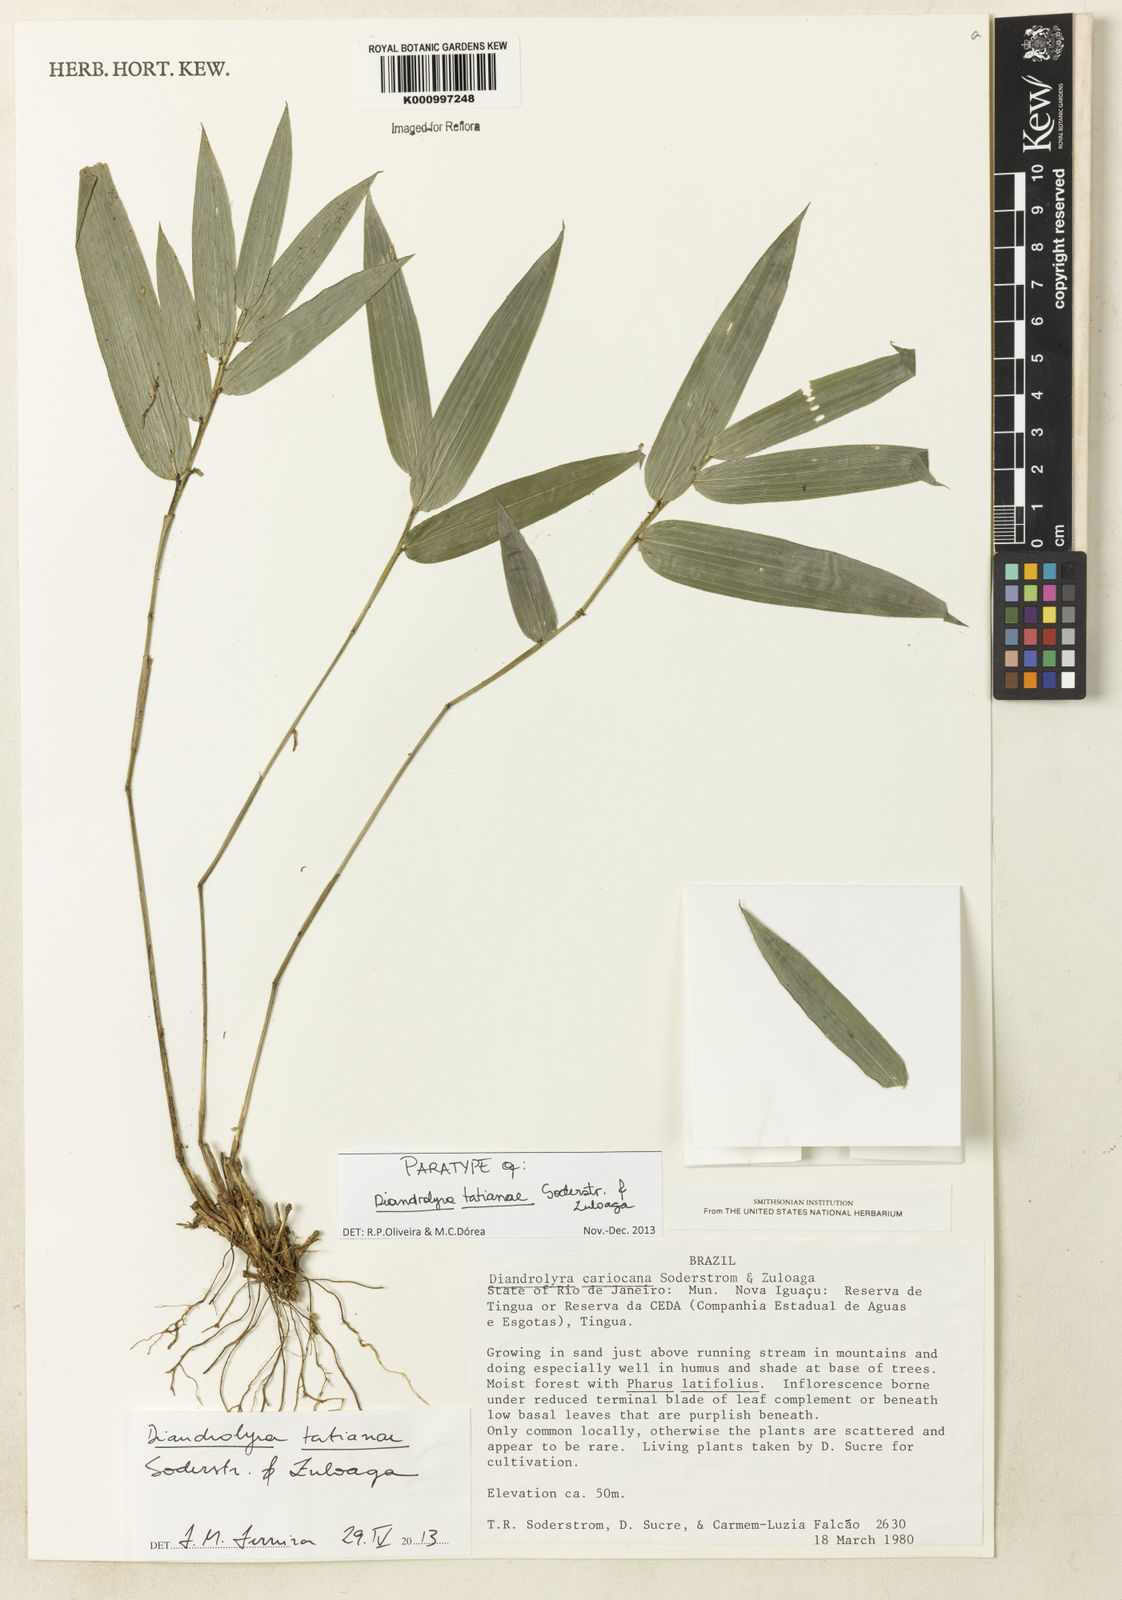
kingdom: Plantae
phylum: Tracheophyta
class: Liliopsida
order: Poales
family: Poaceae
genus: Diandrolyra
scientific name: Diandrolyra tatianae
